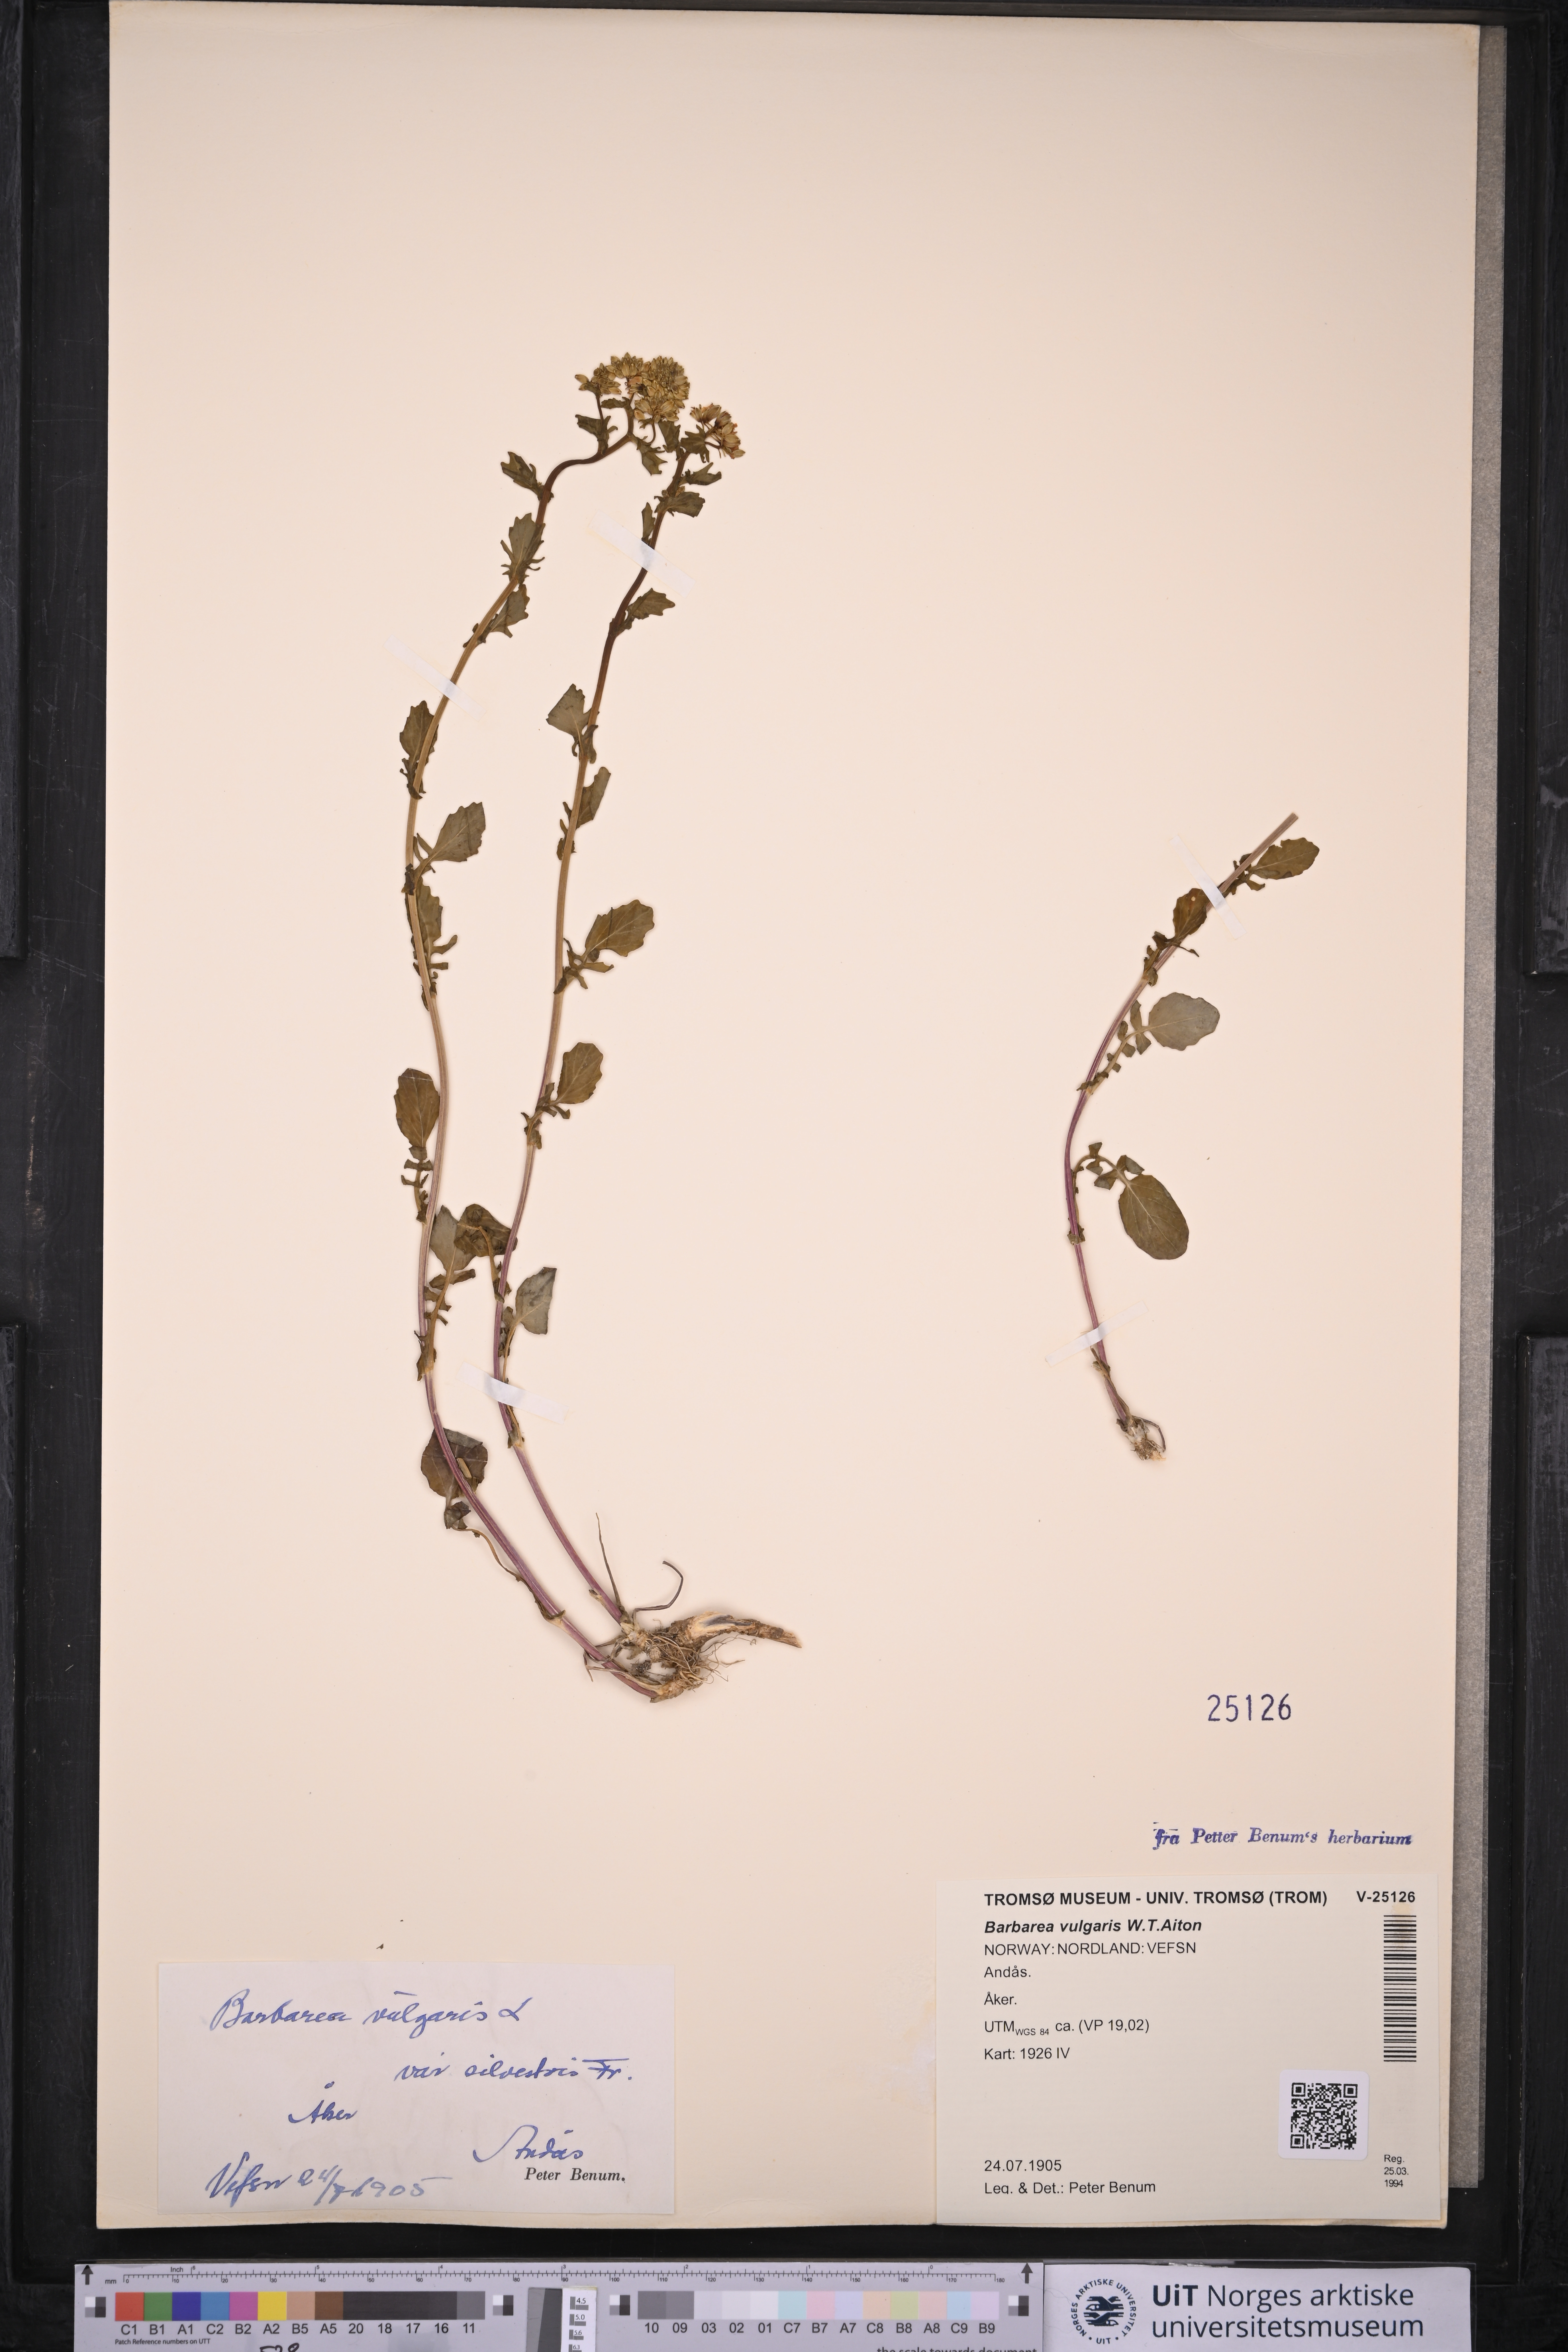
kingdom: Plantae
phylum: Tracheophyta
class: Magnoliopsida
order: Brassicales
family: Brassicaceae
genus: Barbarea
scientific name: Barbarea vulgaris
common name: Cressy-greens
